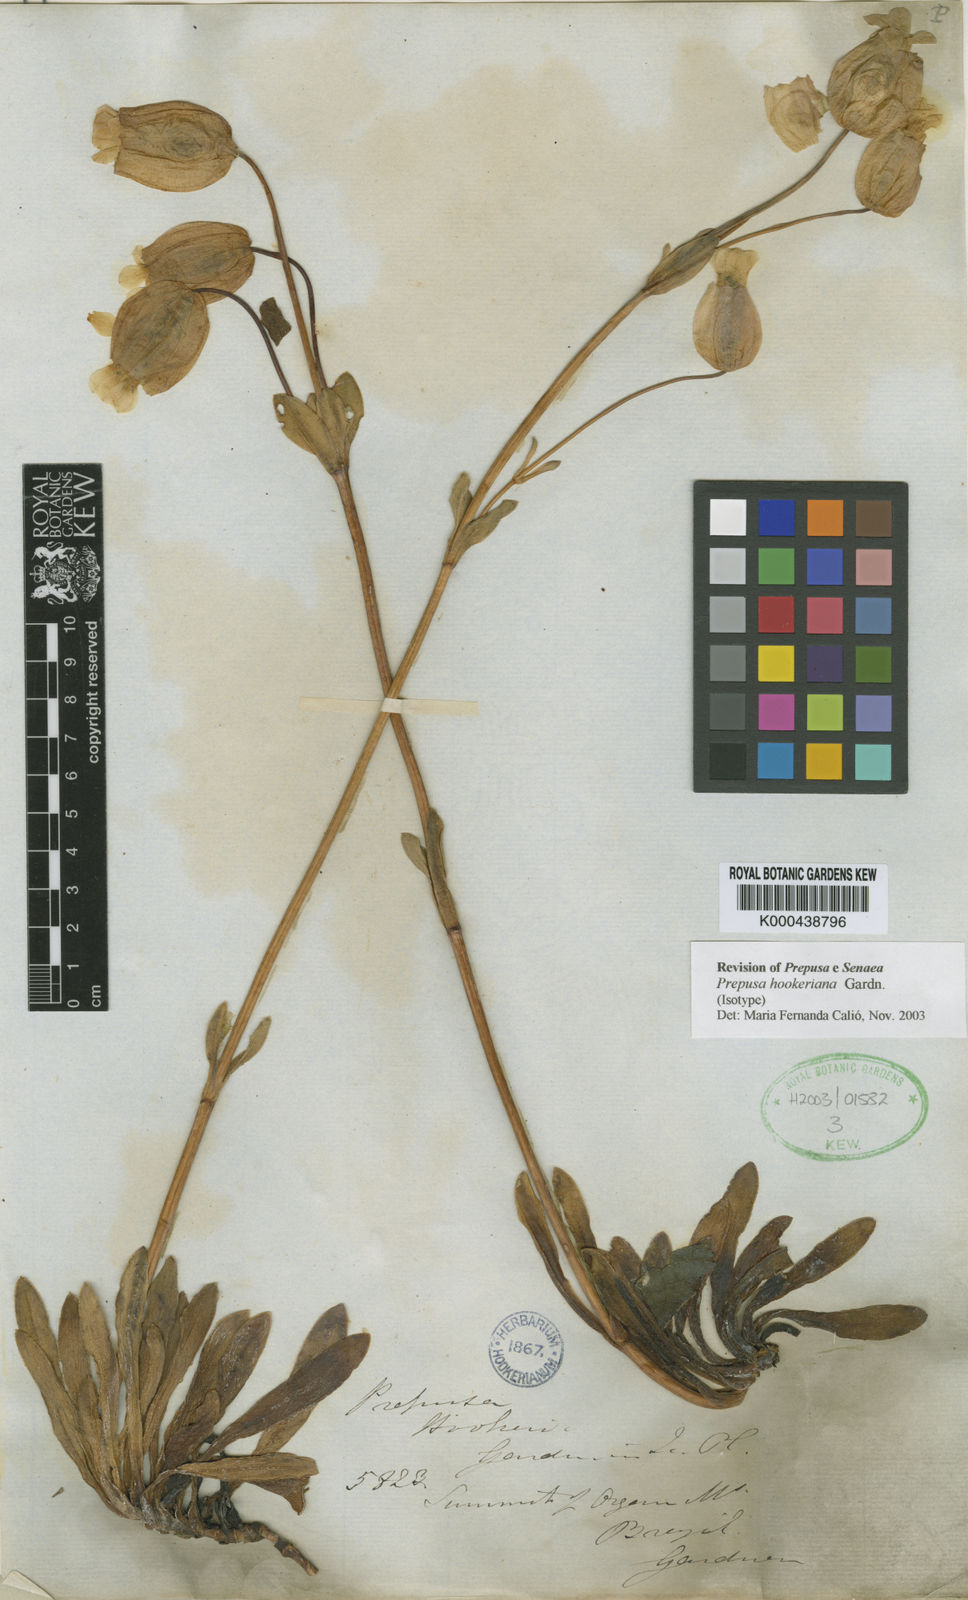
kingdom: Plantae
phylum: Tracheophyta
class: Magnoliopsida
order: Gentianales
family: Gentianaceae
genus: Prepusa
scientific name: Prepusa hookeriana
